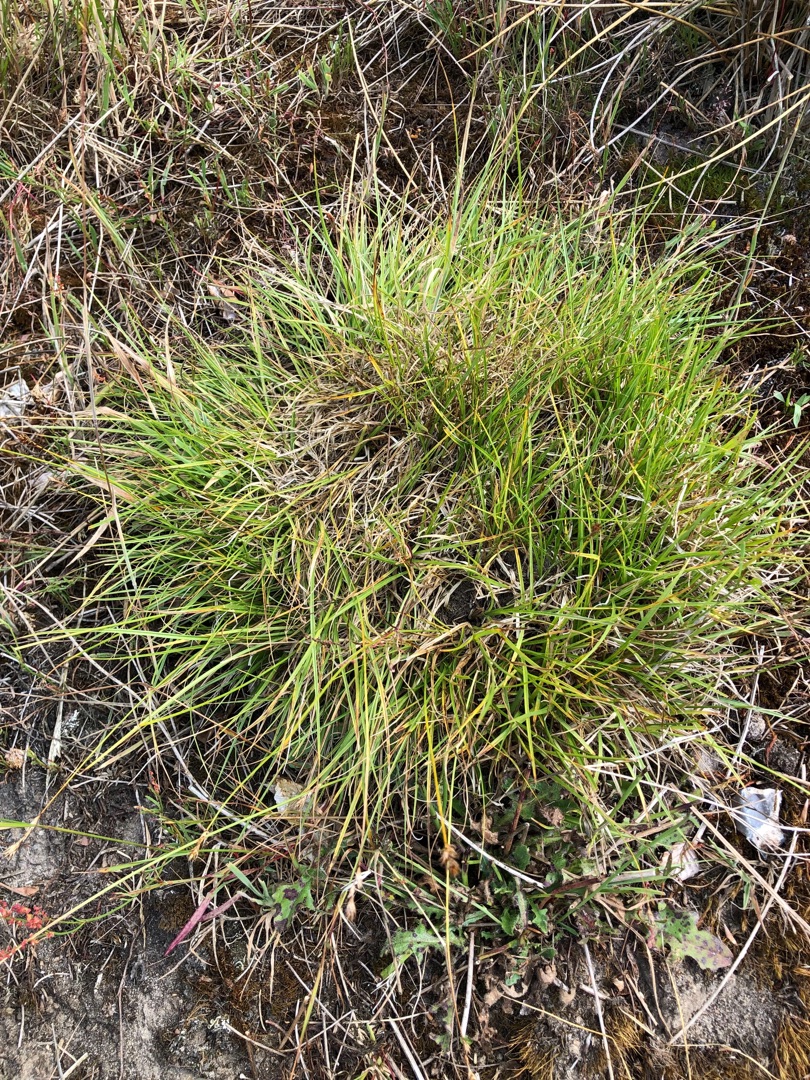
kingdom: Plantae
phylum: Tracheophyta
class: Liliopsida
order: Poales
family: Cyperaceae
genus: Carex
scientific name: Carex leporina
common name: Hare-star
